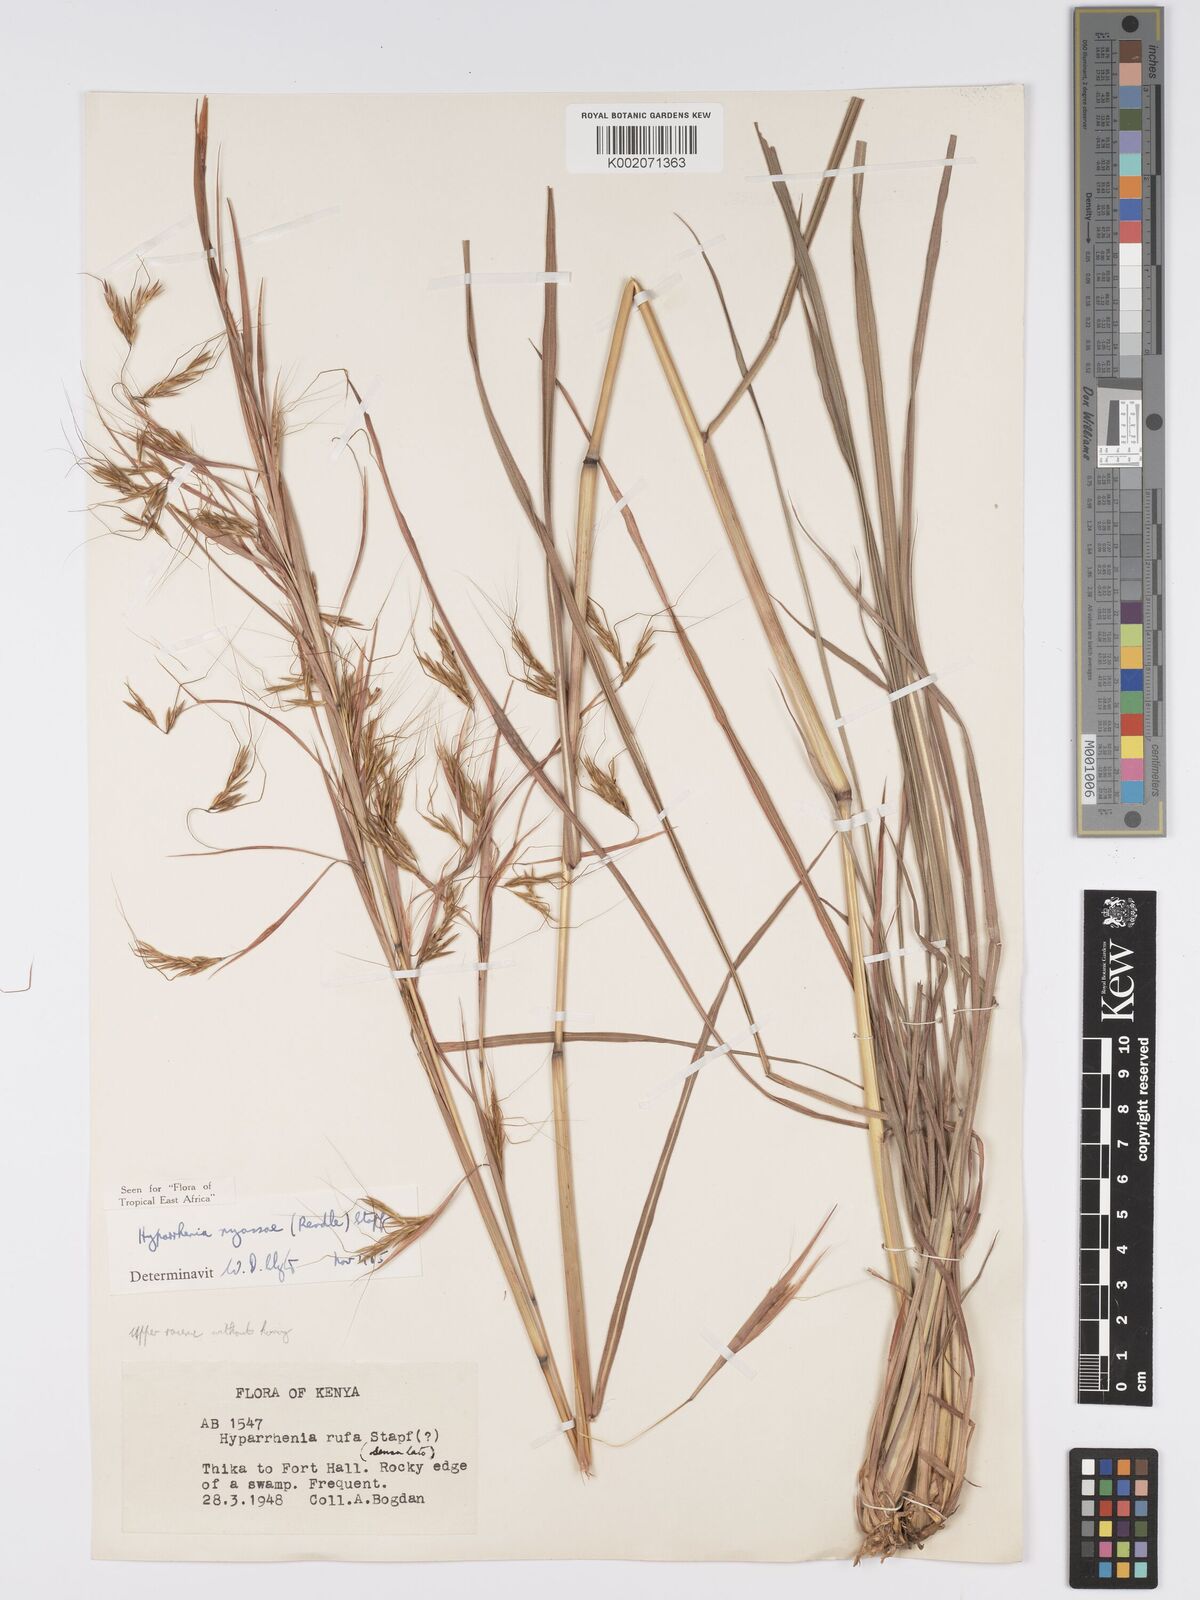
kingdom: Plantae
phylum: Tracheophyta
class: Liliopsida
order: Poales
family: Poaceae
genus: Hyparrhenia
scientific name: Hyparrhenia nyassae
